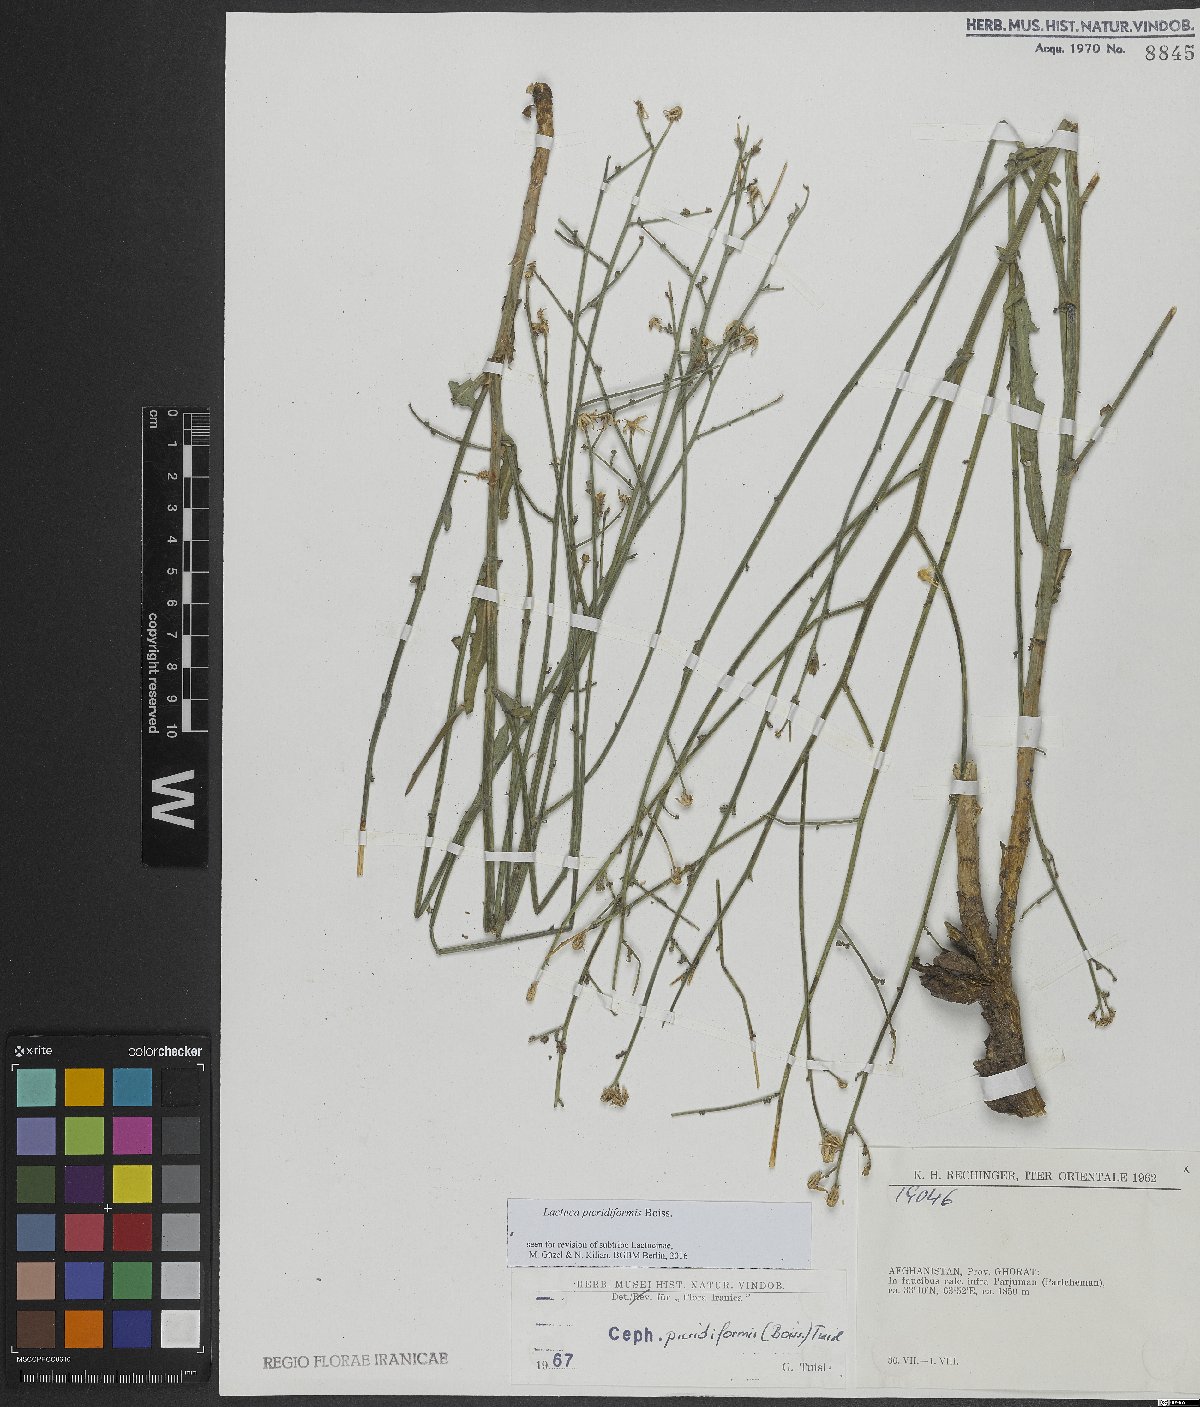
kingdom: Plantae
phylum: Tracheophyta
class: Magnoliopsida
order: Asterales
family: Asteraceae
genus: Lactuca
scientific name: Lactuca picridiformis
